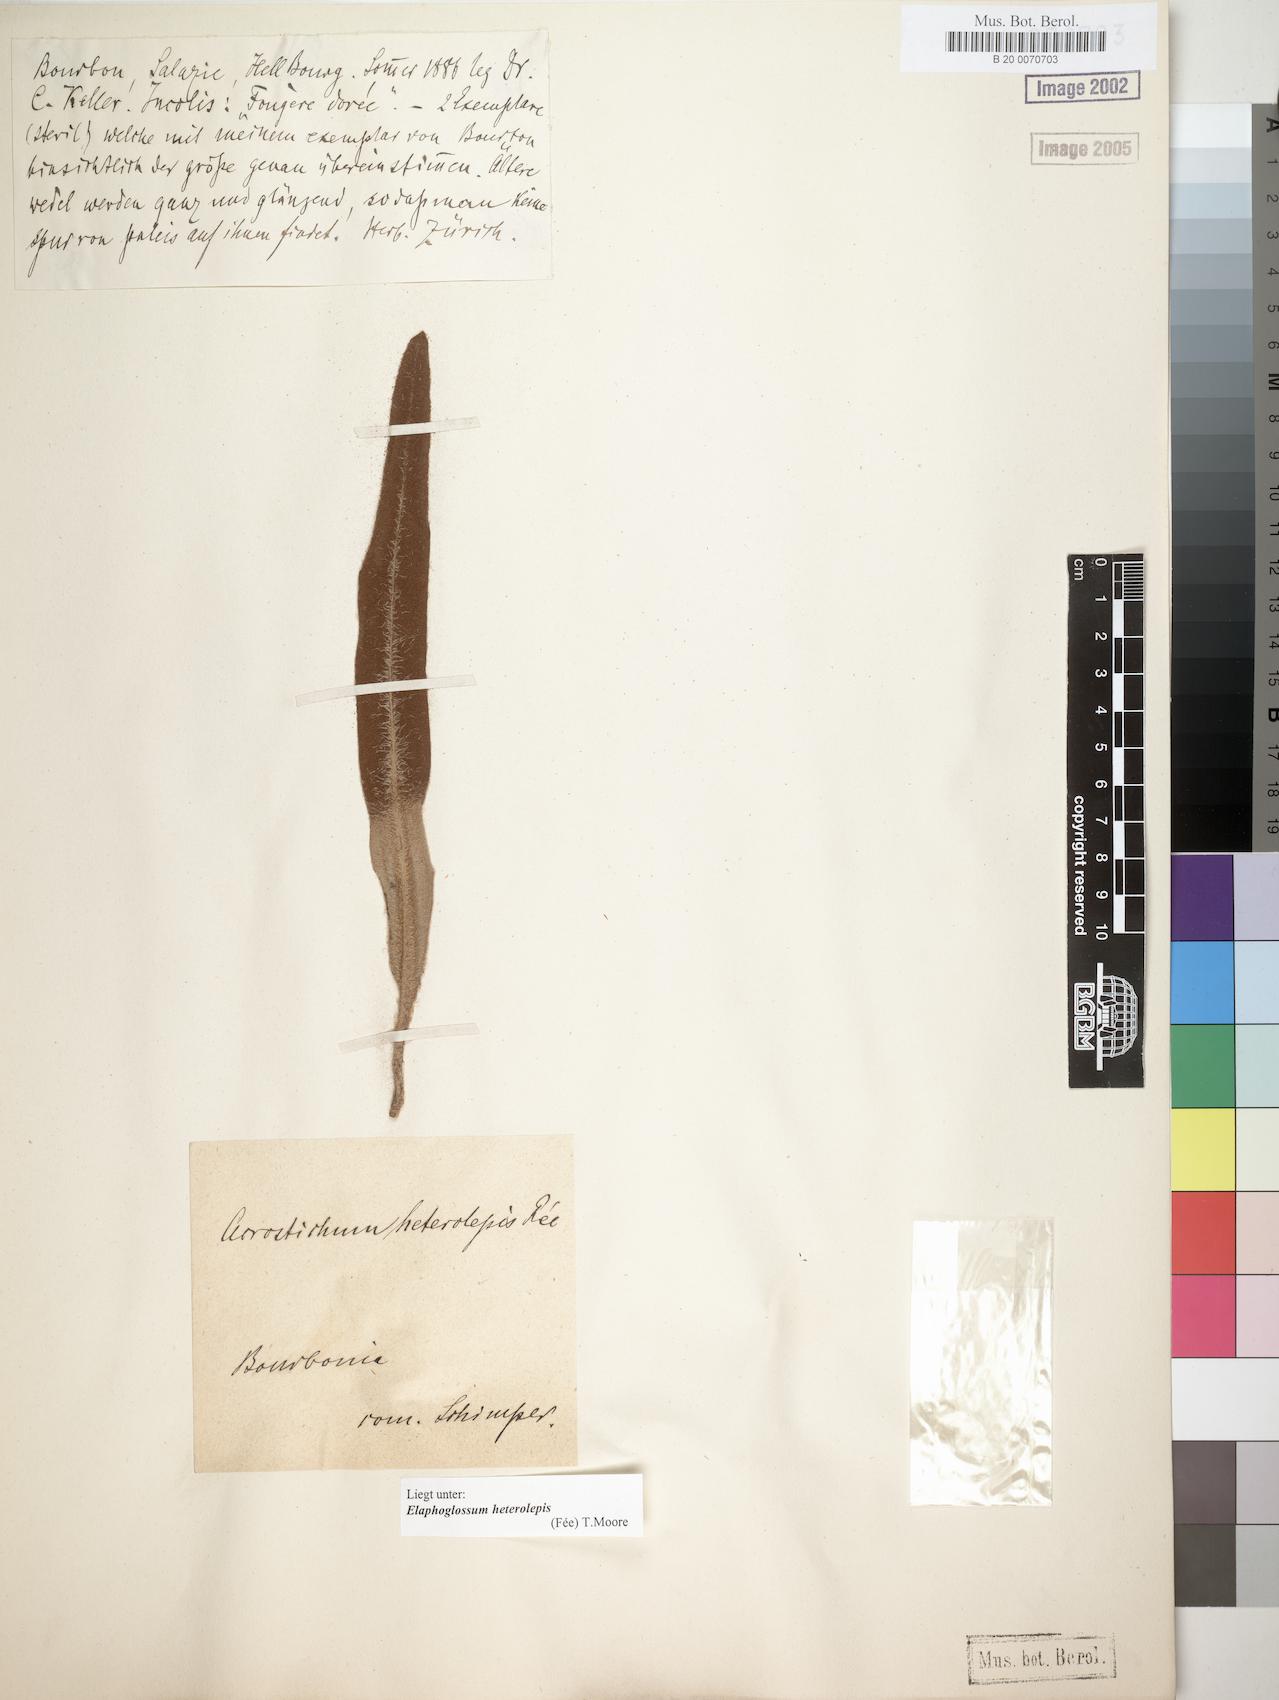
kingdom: Plantae
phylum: Tracheophyta
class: Polypodiopsida
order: Polypodiales
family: Dryopteridaceae
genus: Elaphoglossum
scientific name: Elaphoglossum heterolepis
